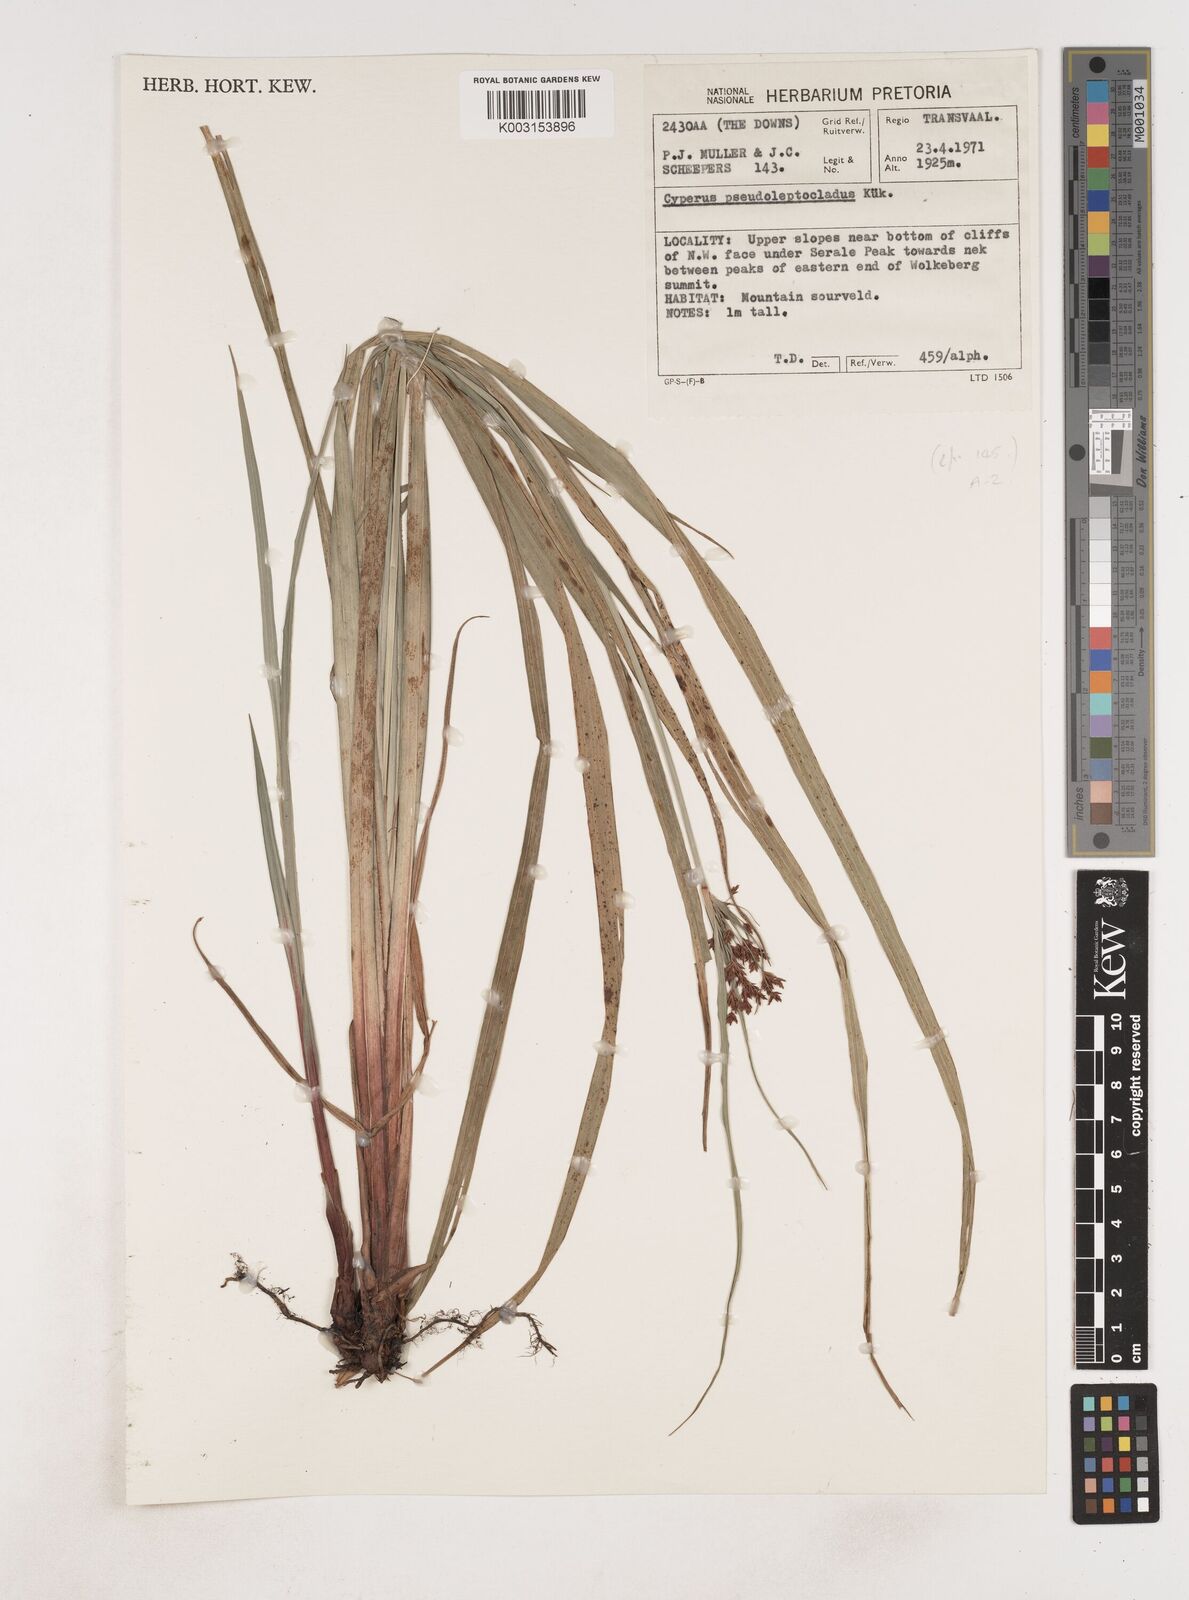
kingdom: Plantae
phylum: Tracheophyta
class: Liliopsida
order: Poales
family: Cyperaceae
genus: Cyperus
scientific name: Cyperus
